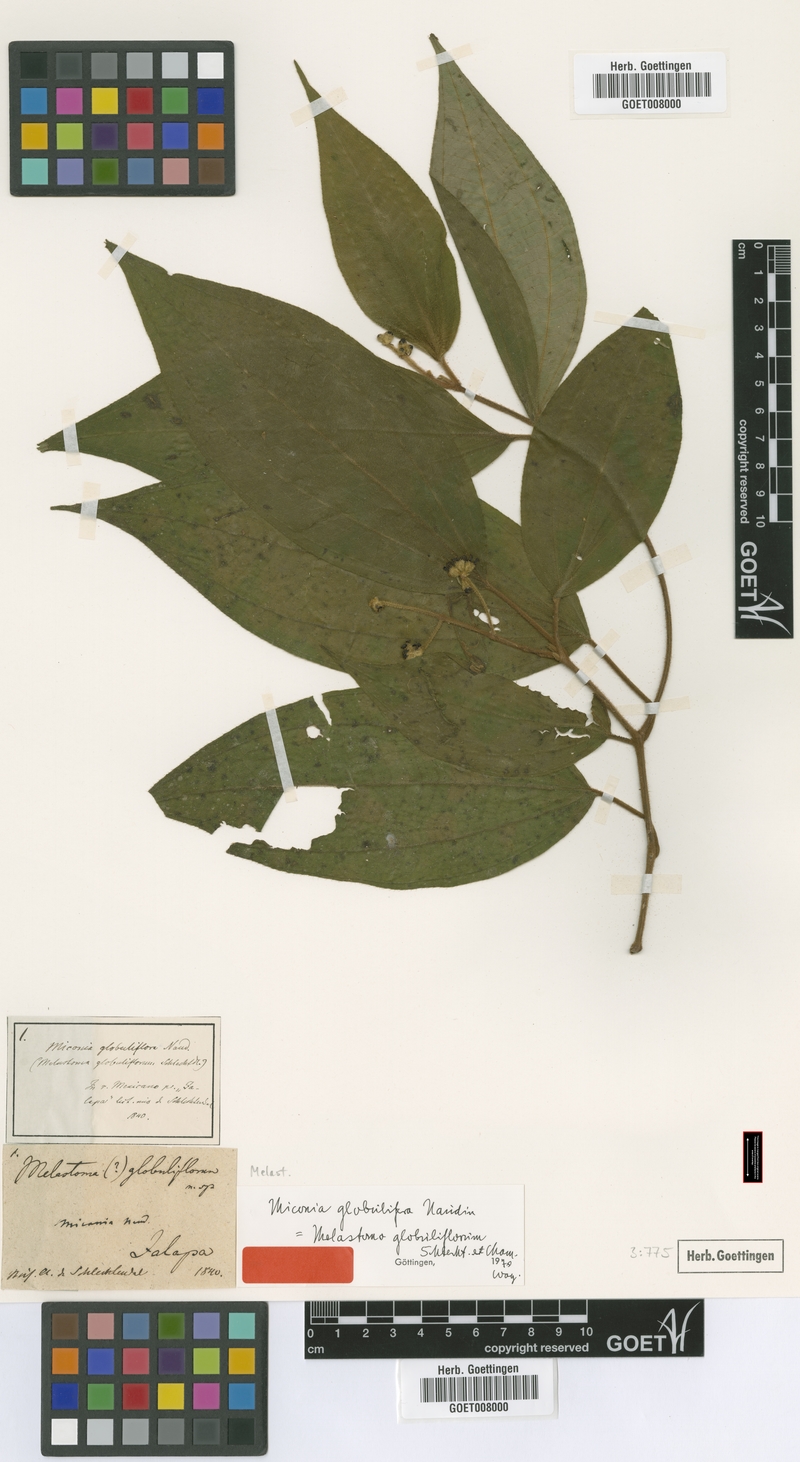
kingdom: Plantae
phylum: Tracheophyta
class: Magnoliopsida
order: Myrtales
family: Melastomataceae
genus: Miconia
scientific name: Miconia globulifera
